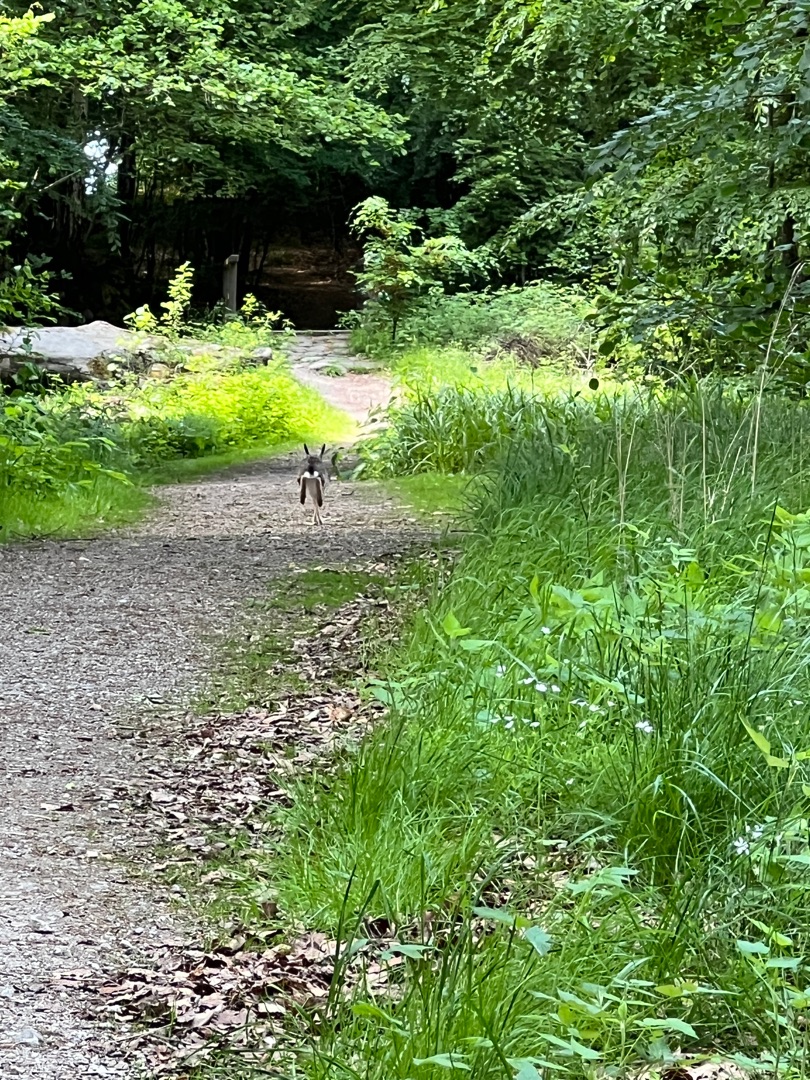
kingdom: Animalia
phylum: Chordata
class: Mammalia
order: Lagomorpha
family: Leporidae
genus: Lepus
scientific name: Lepus europaeus
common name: Hare
